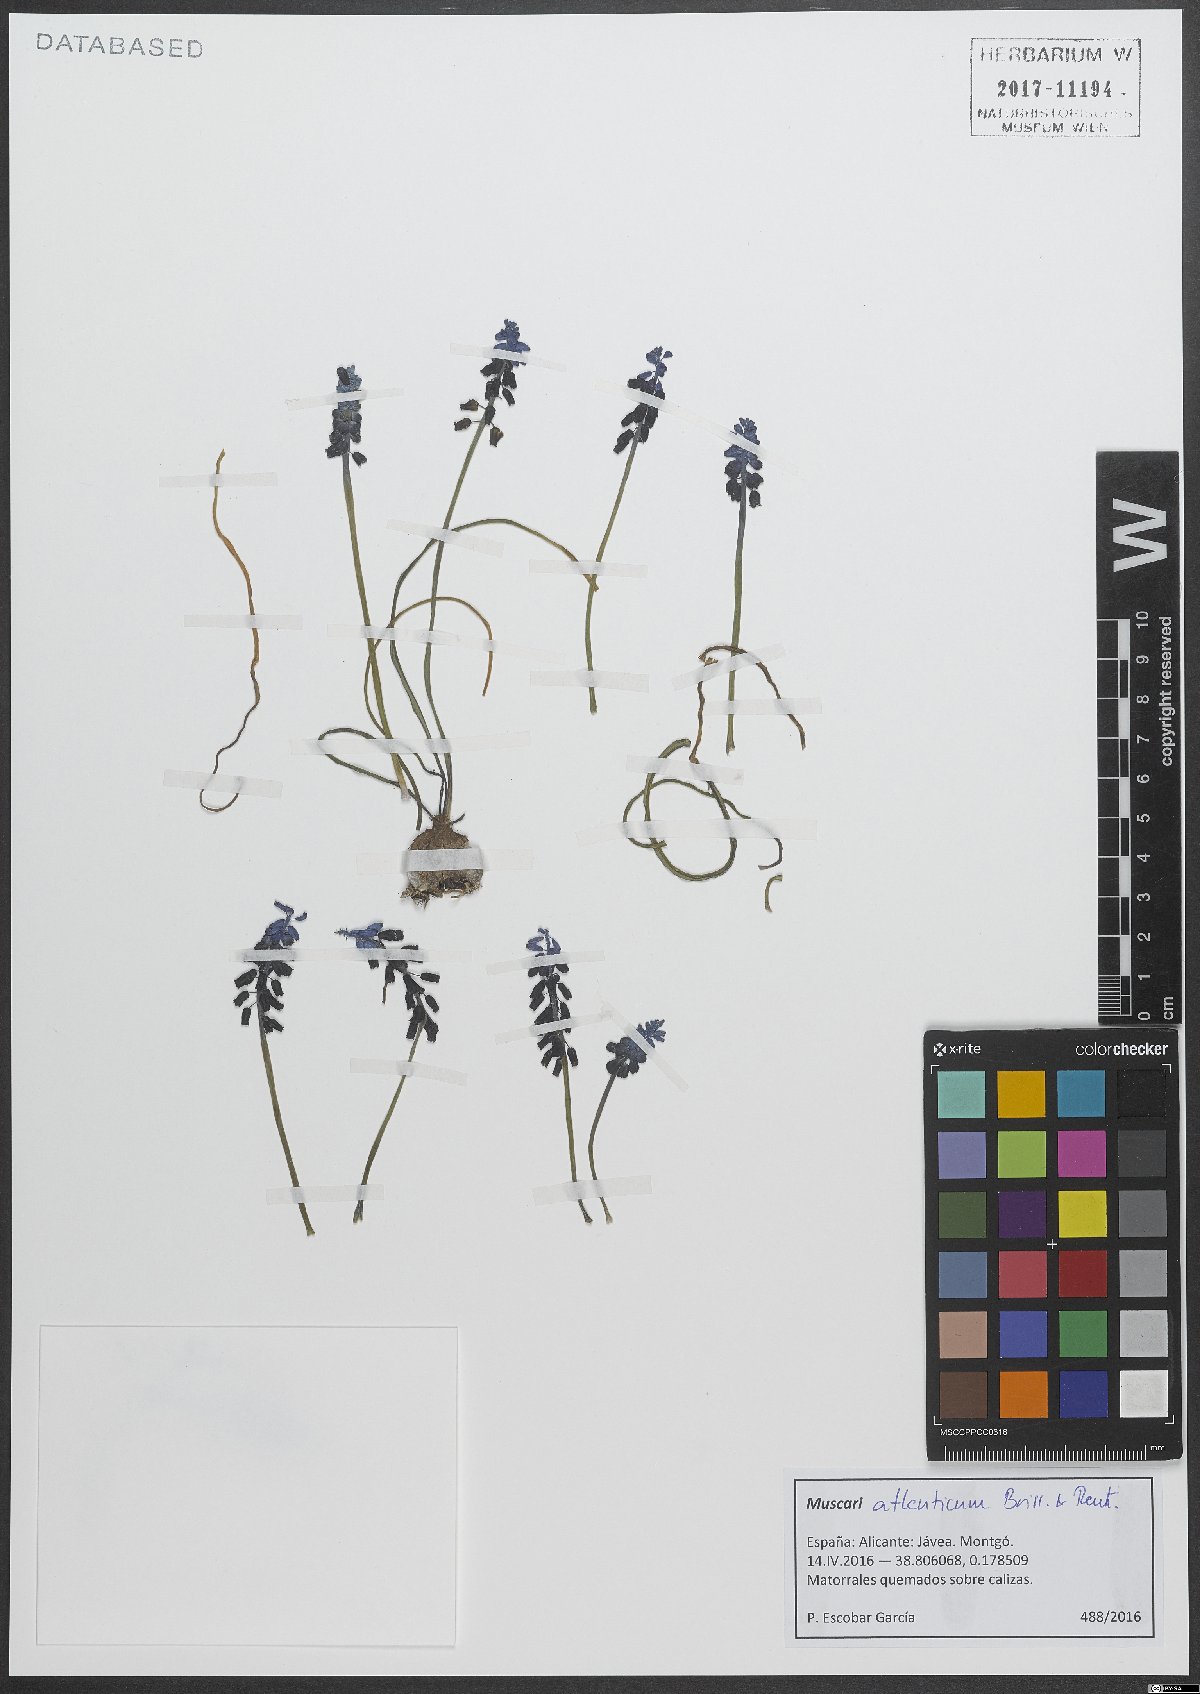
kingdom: Plantae
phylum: Tracheophyta
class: Liliopsida
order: Asparagales
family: Asparagaceae
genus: Muscari
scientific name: Muscari atlanticum
